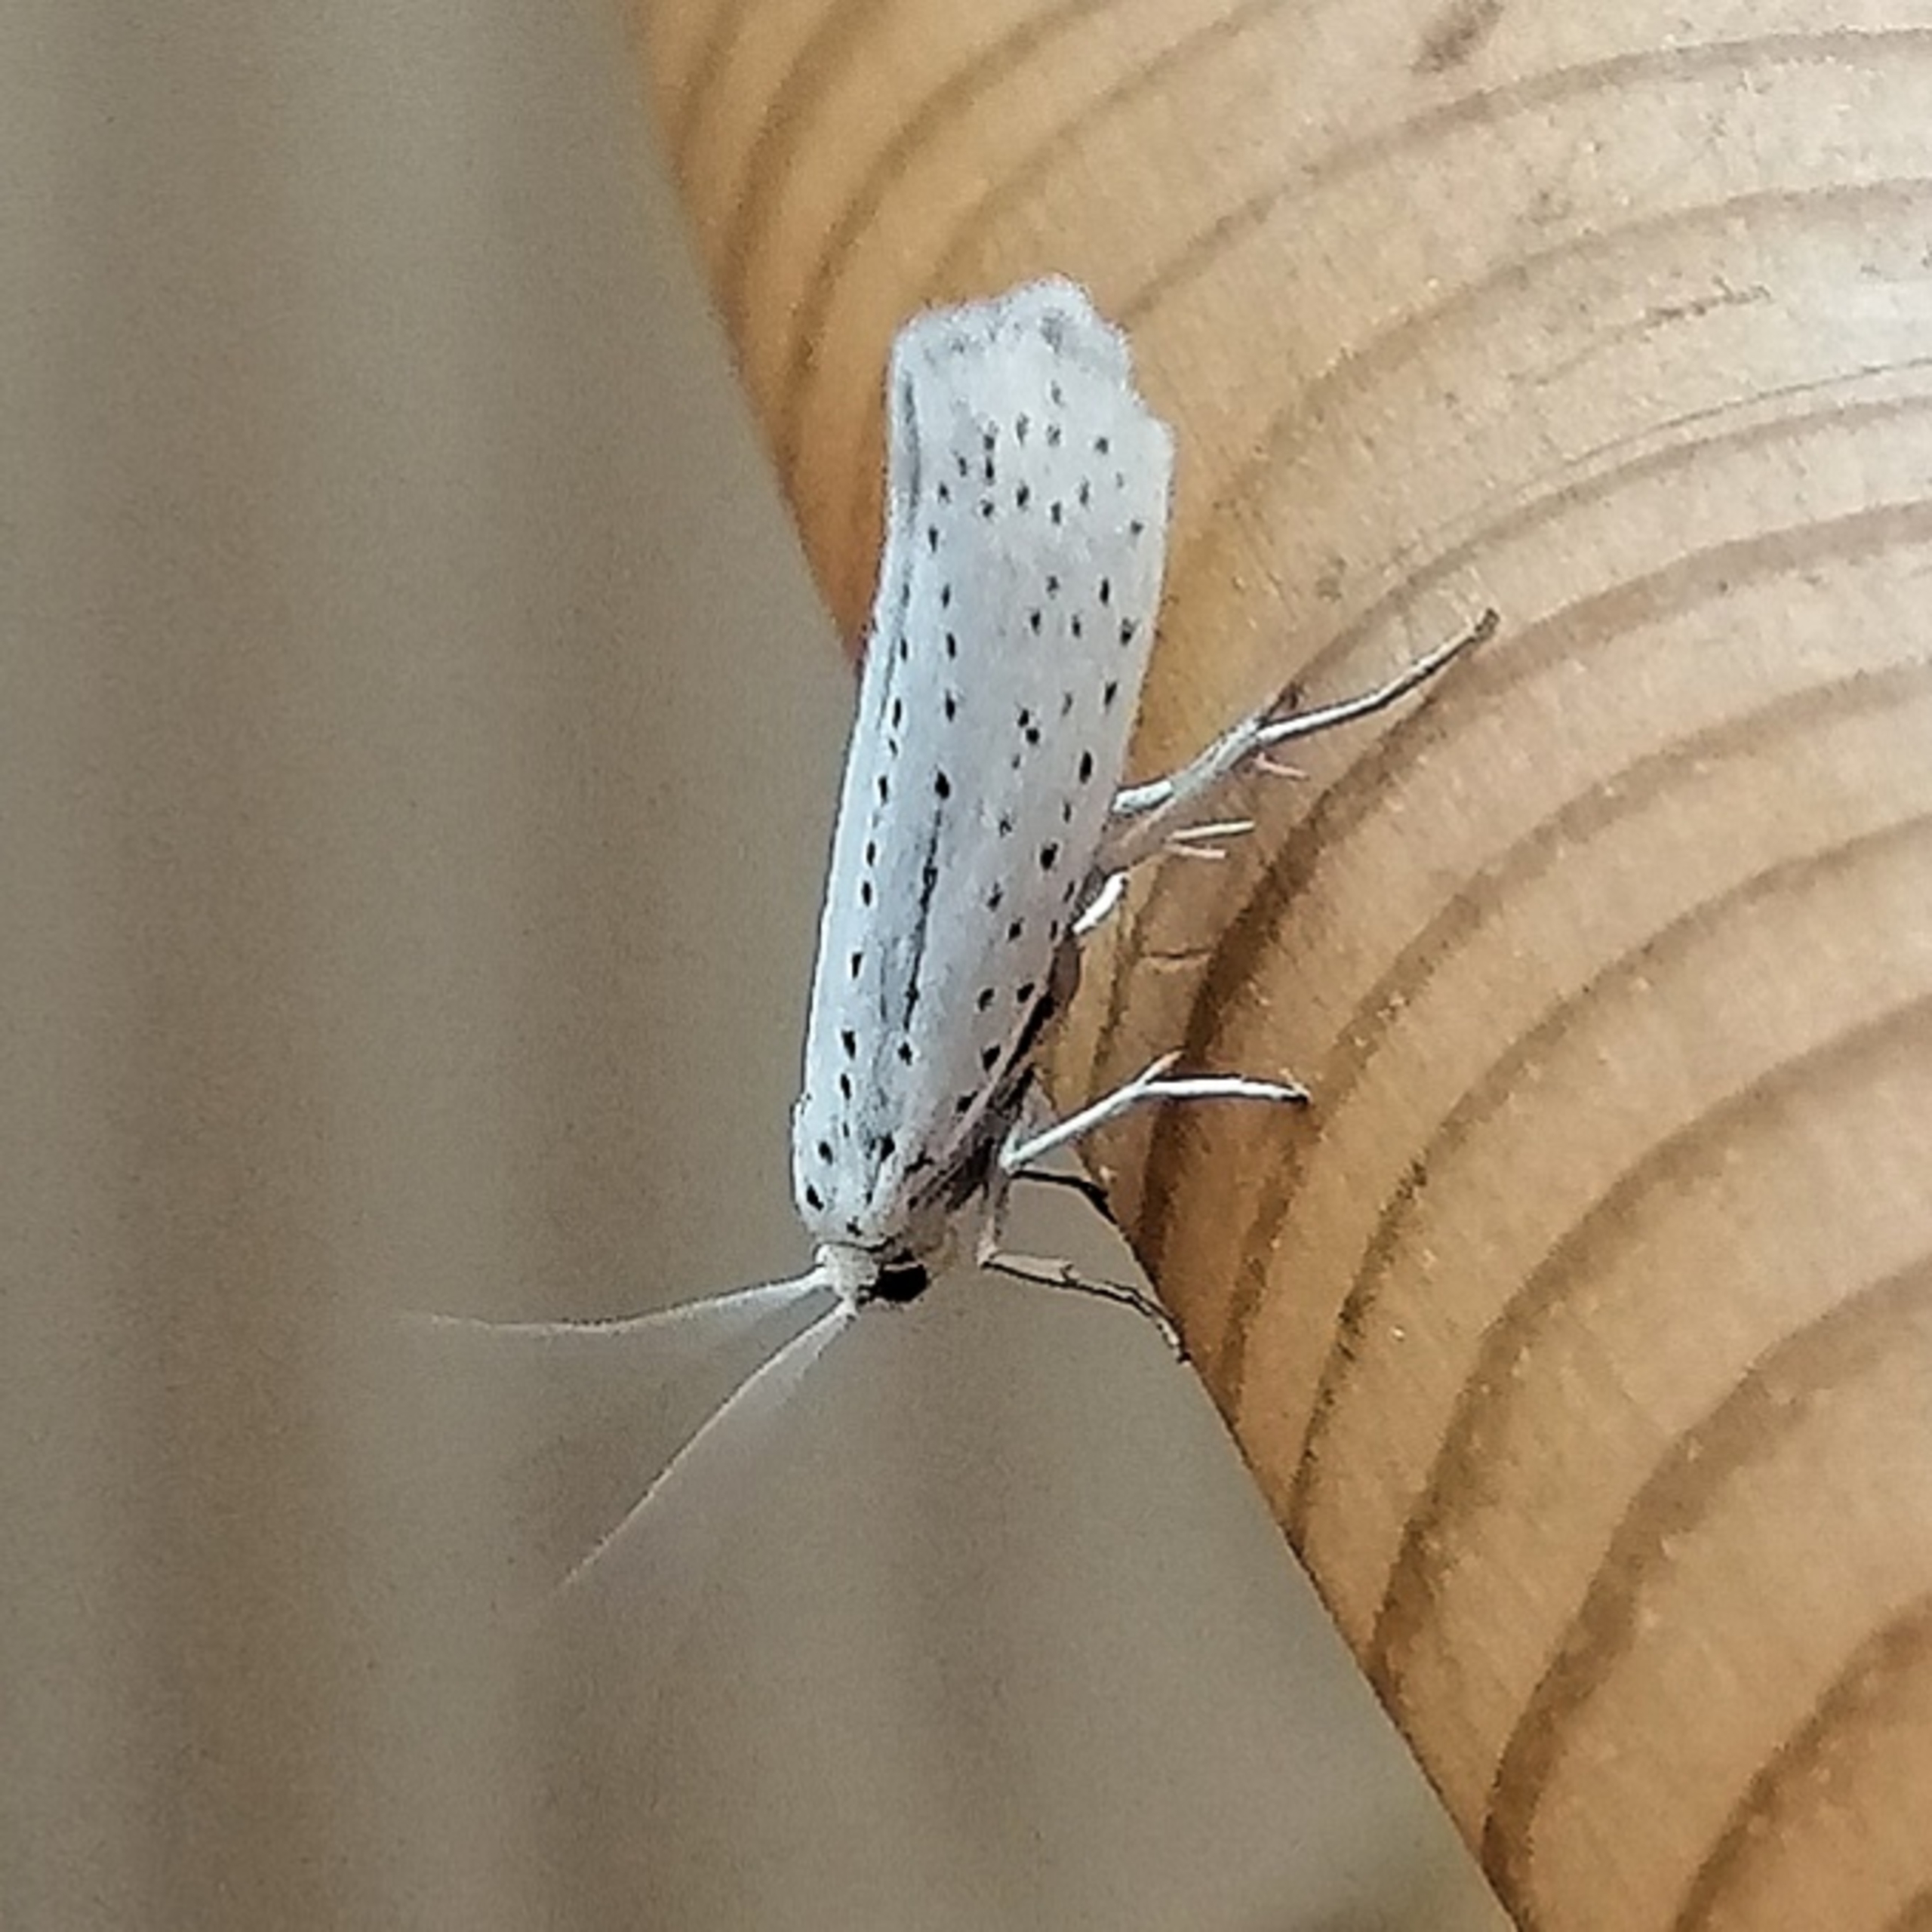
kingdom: Animalia
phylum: Arthropoda
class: Insecta
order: Lepidoptera
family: Yponomeutidae
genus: Yponomeuta
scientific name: Yponomeuta evonymella
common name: Hægspindemøl
